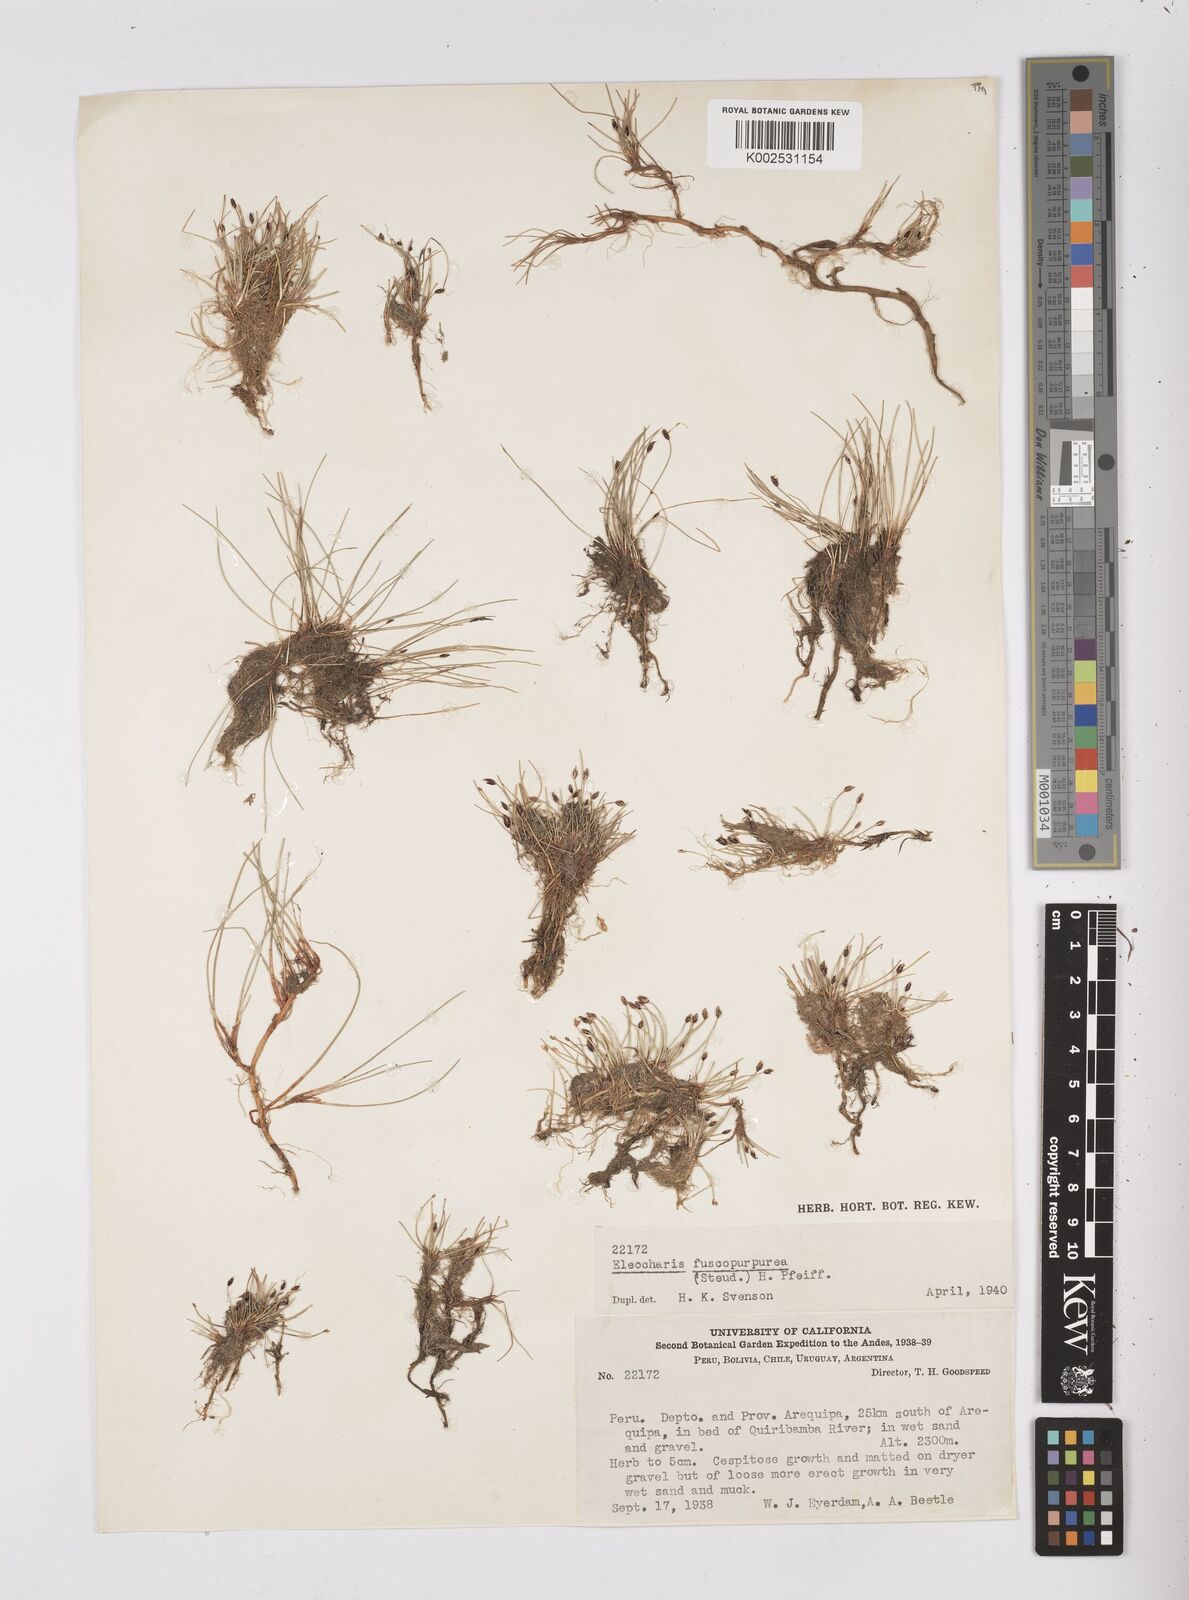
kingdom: Plantae
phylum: Tracheophyta
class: Liliopsida
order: Poales
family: Cyperaceae
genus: Eleocharis
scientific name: Eleocharis fuscopurpurea
